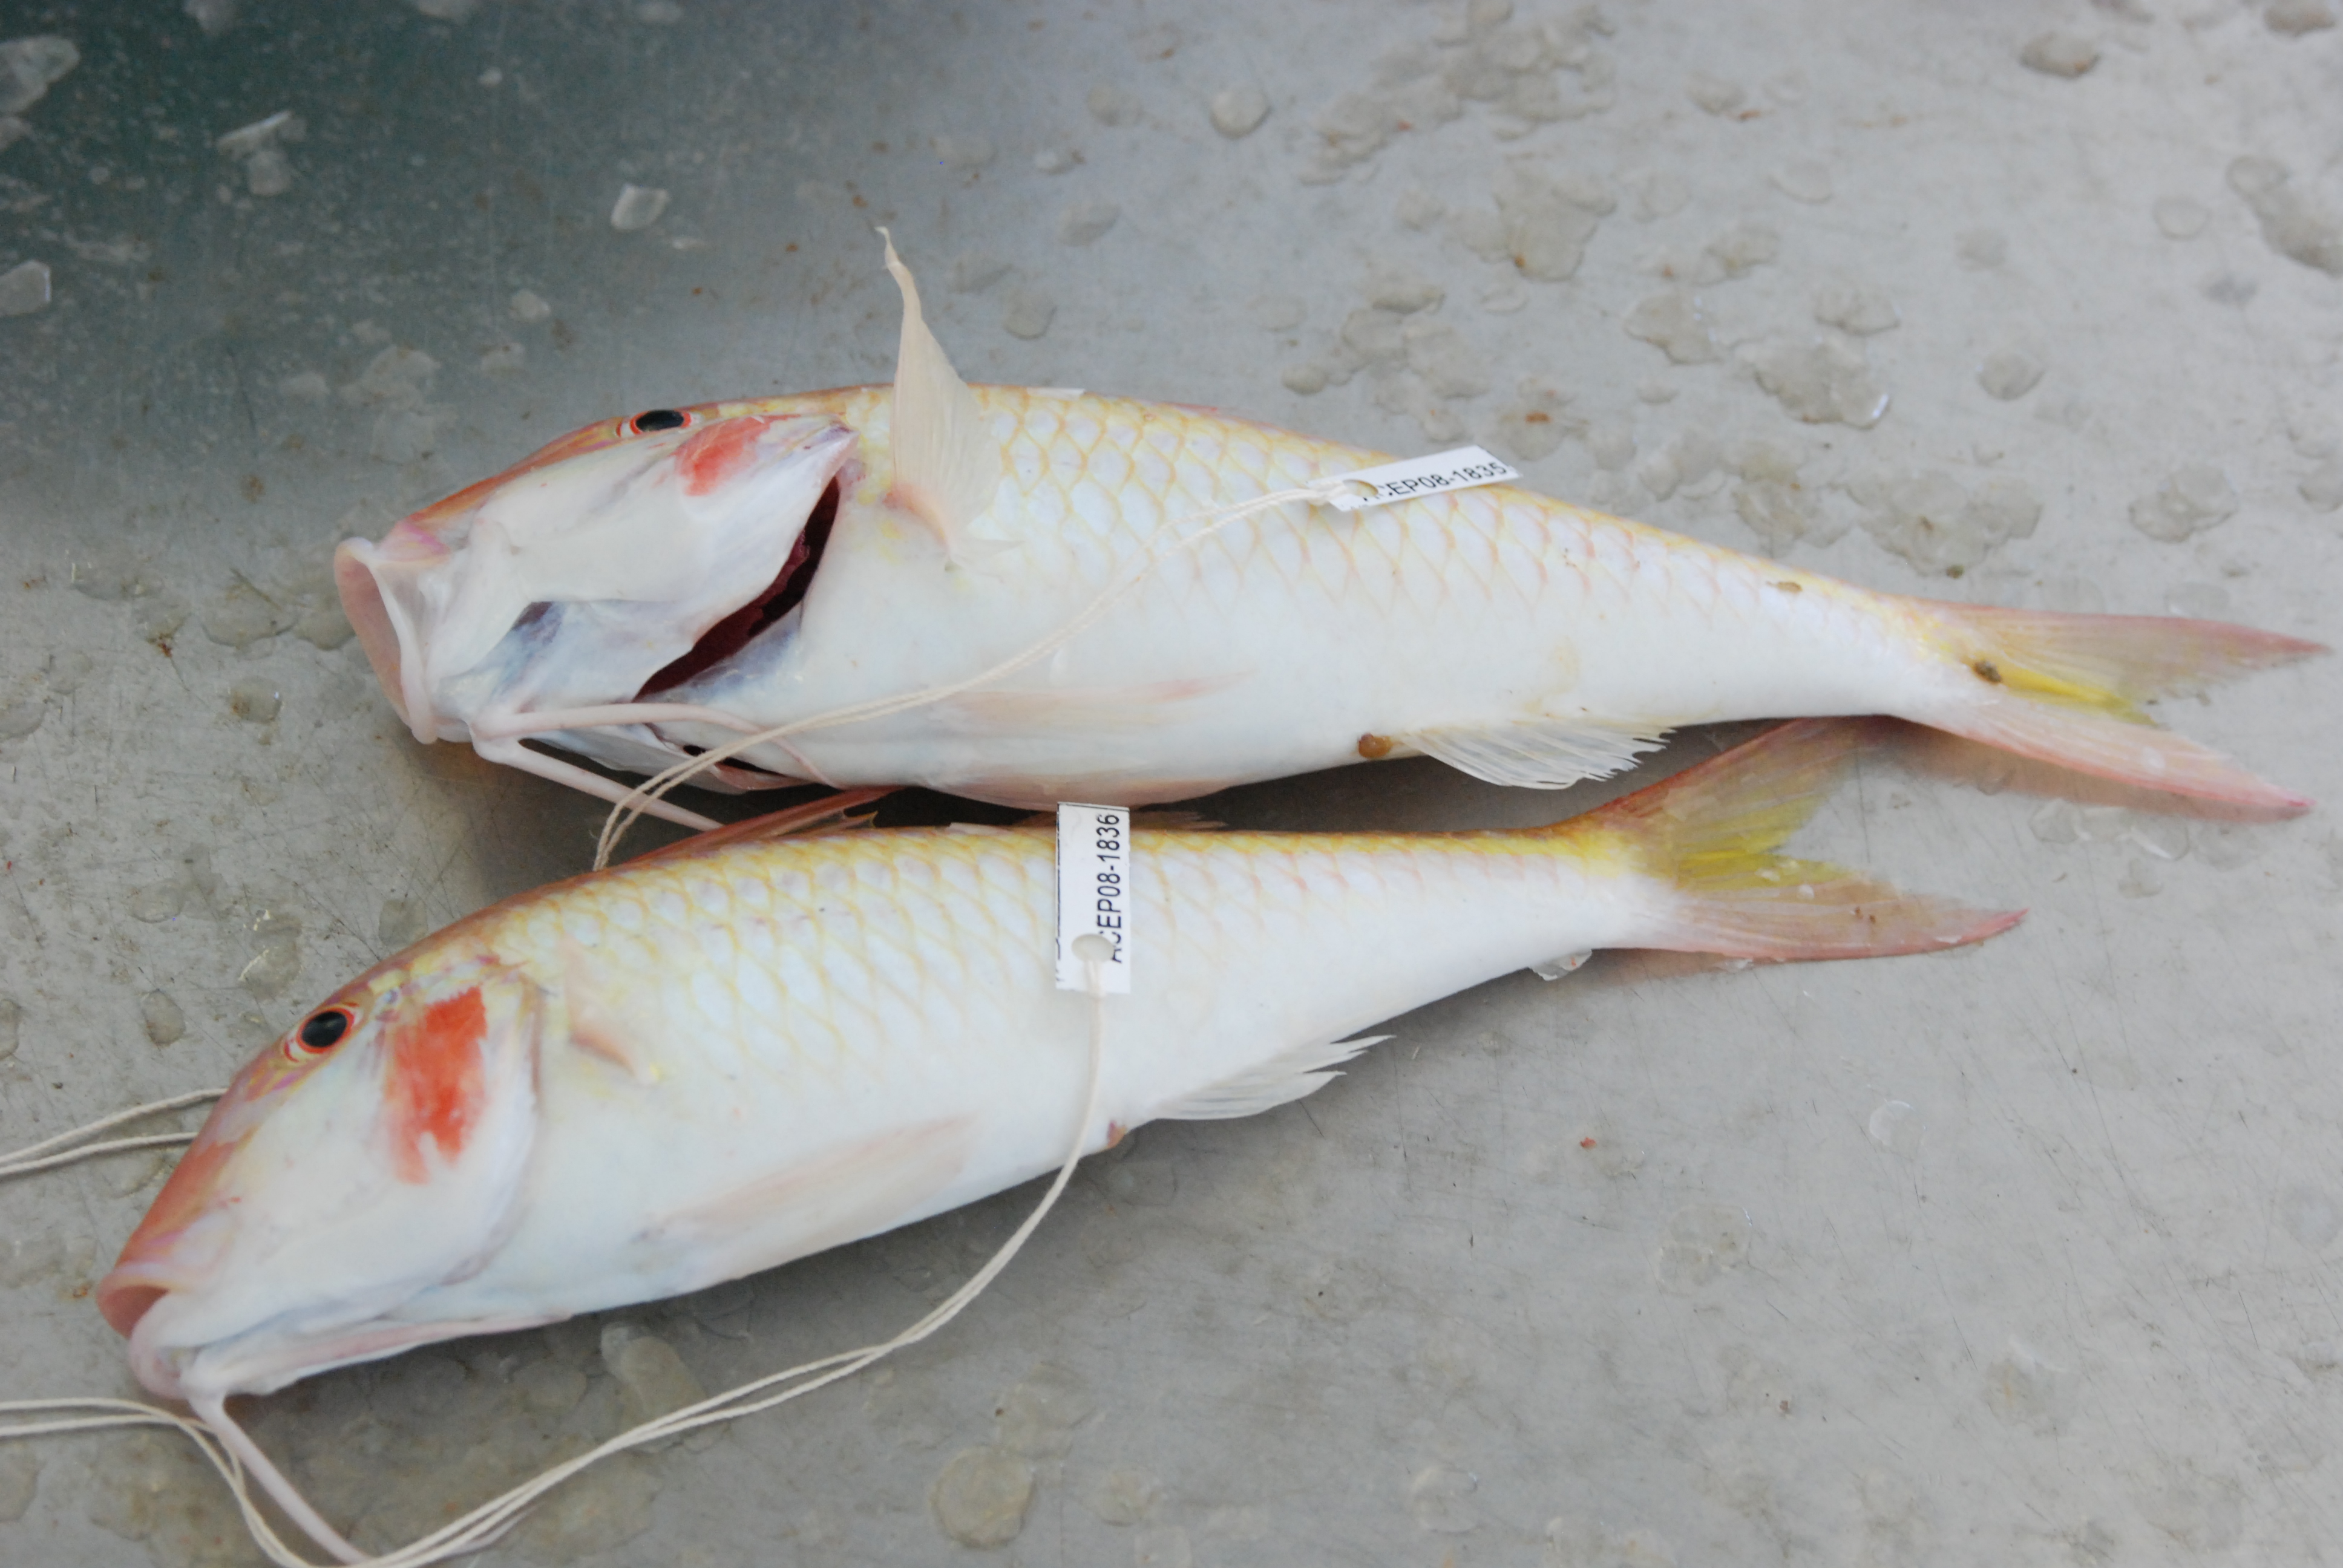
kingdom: Animalia
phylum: Chordata
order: Perciformes
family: Mullidae
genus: Parupeneus
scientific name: Parupeneus seychellensis
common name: Seychelles goatfish
